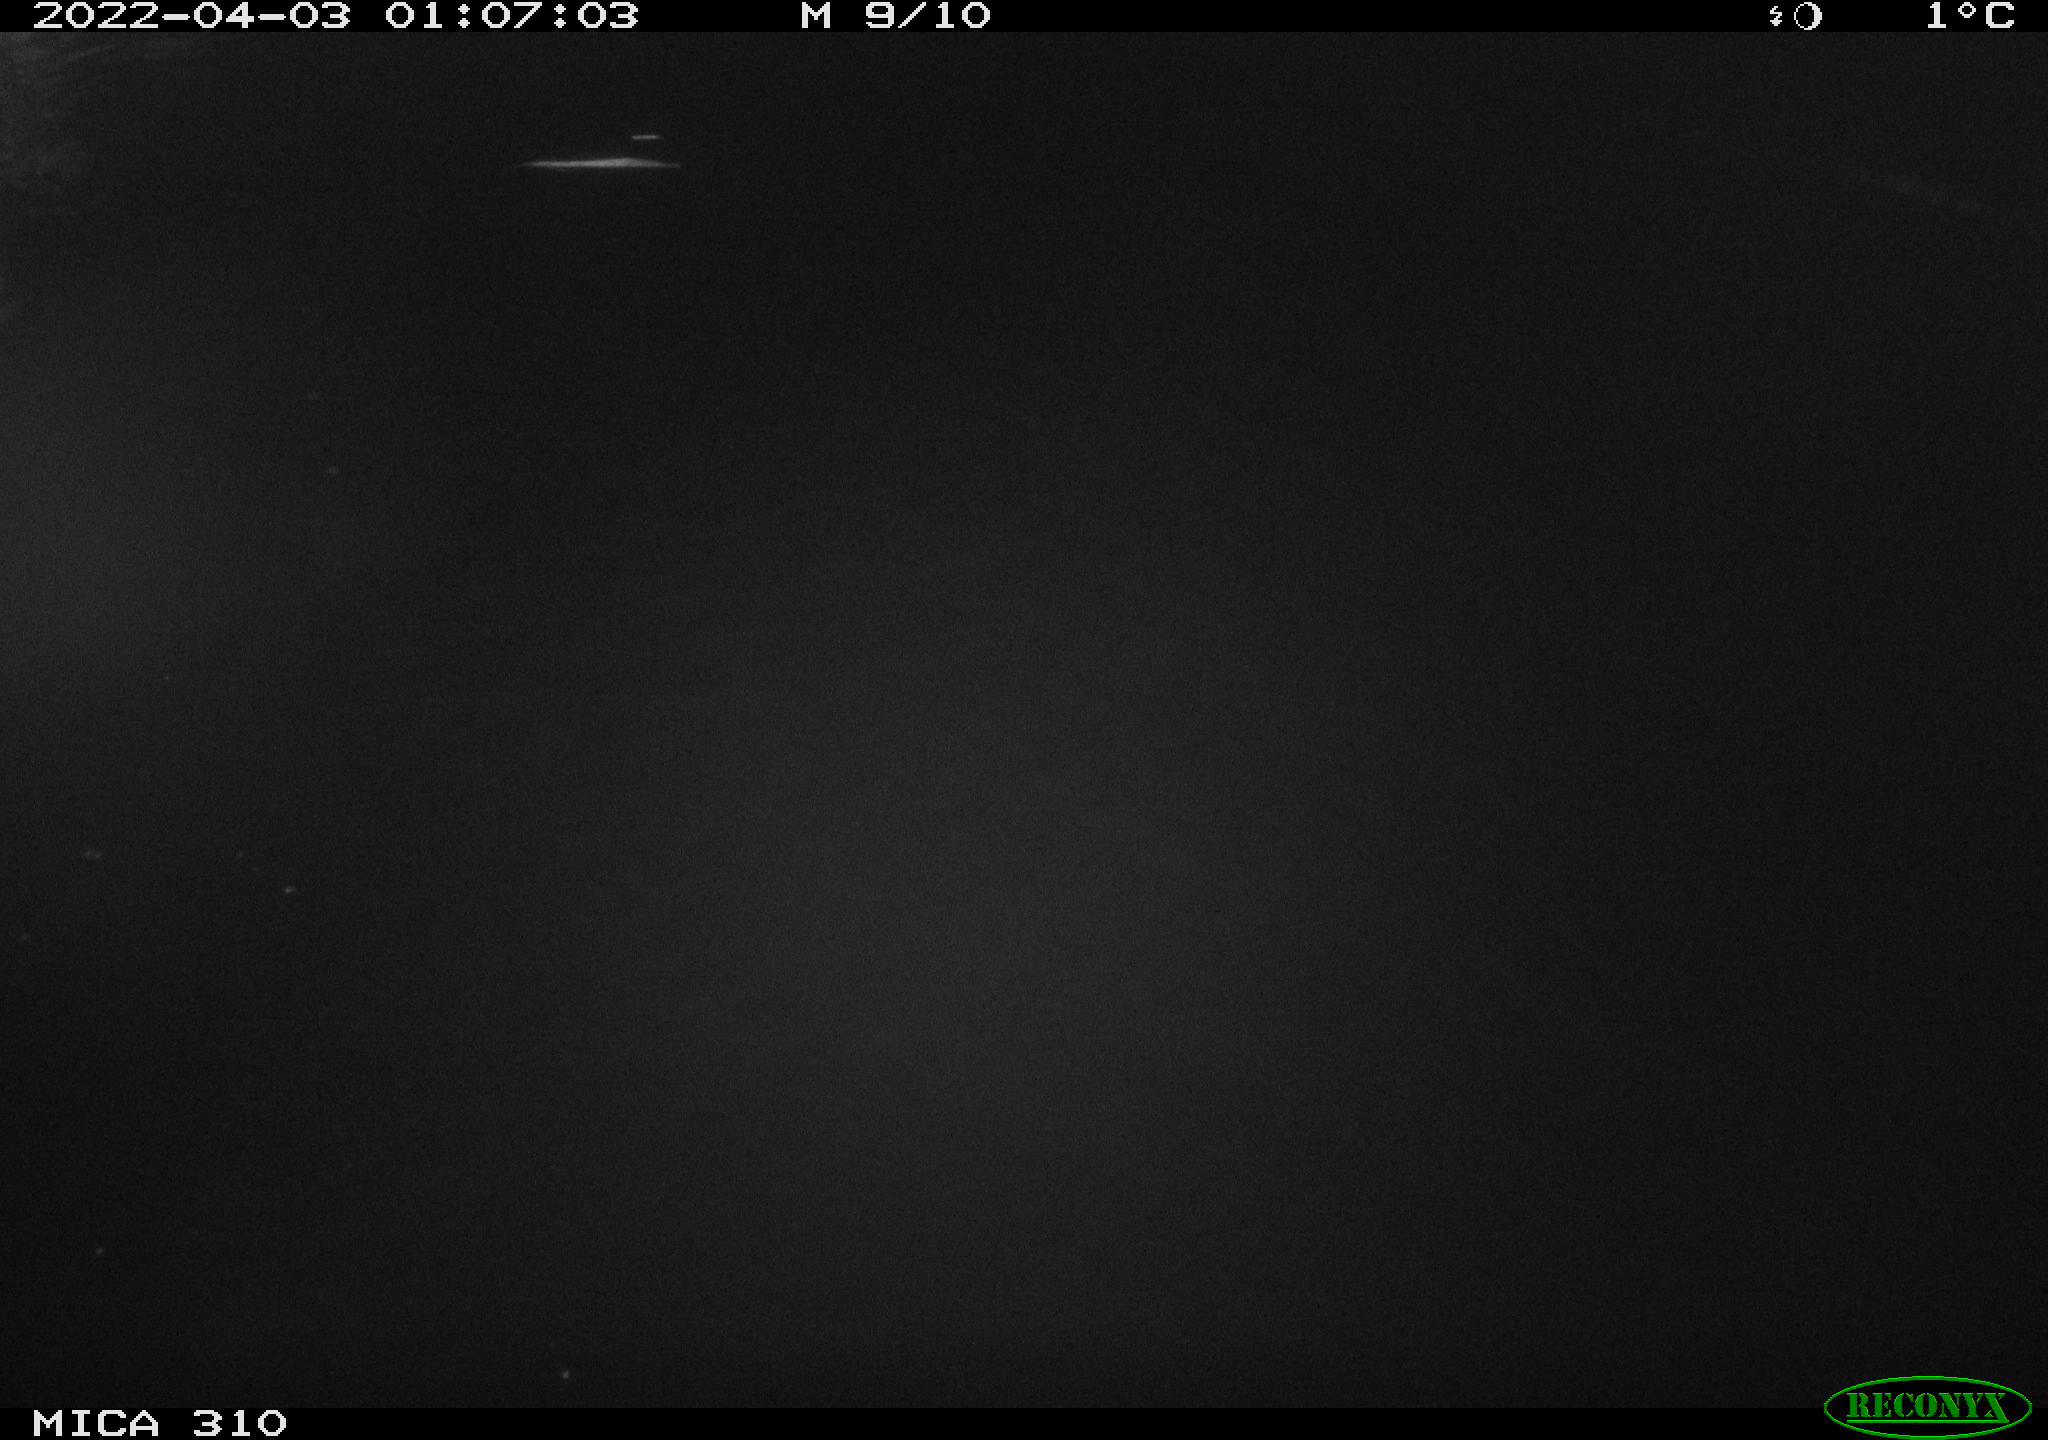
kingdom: Animalia
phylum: Chordata
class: Aves
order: Anseriformes
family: Anatidae
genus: Anas
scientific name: Anas platyrhynchos
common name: Mallard
